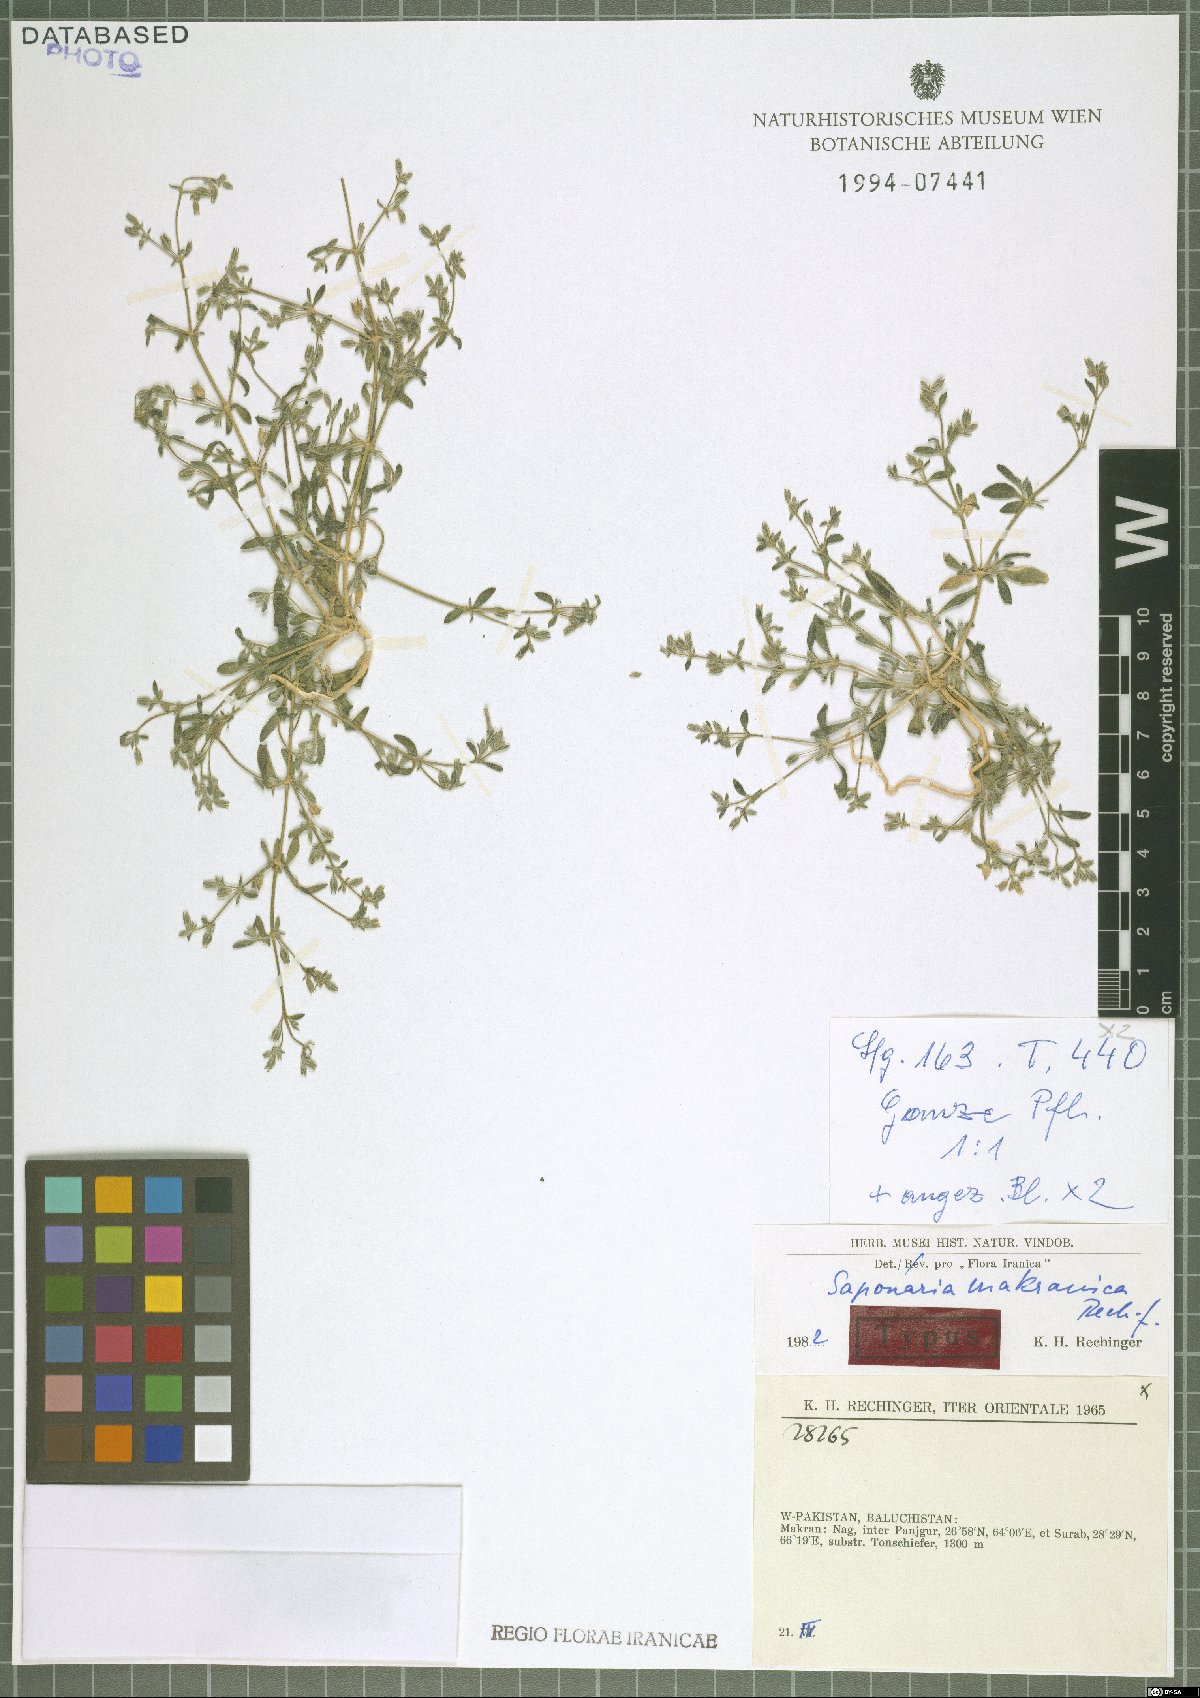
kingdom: Plantae
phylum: Tracheophyta
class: Magnoliopsida
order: Caryophyllales
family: Caryophyllaceae
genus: Acanthophyllum
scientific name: Acanthophyllum makranicum
